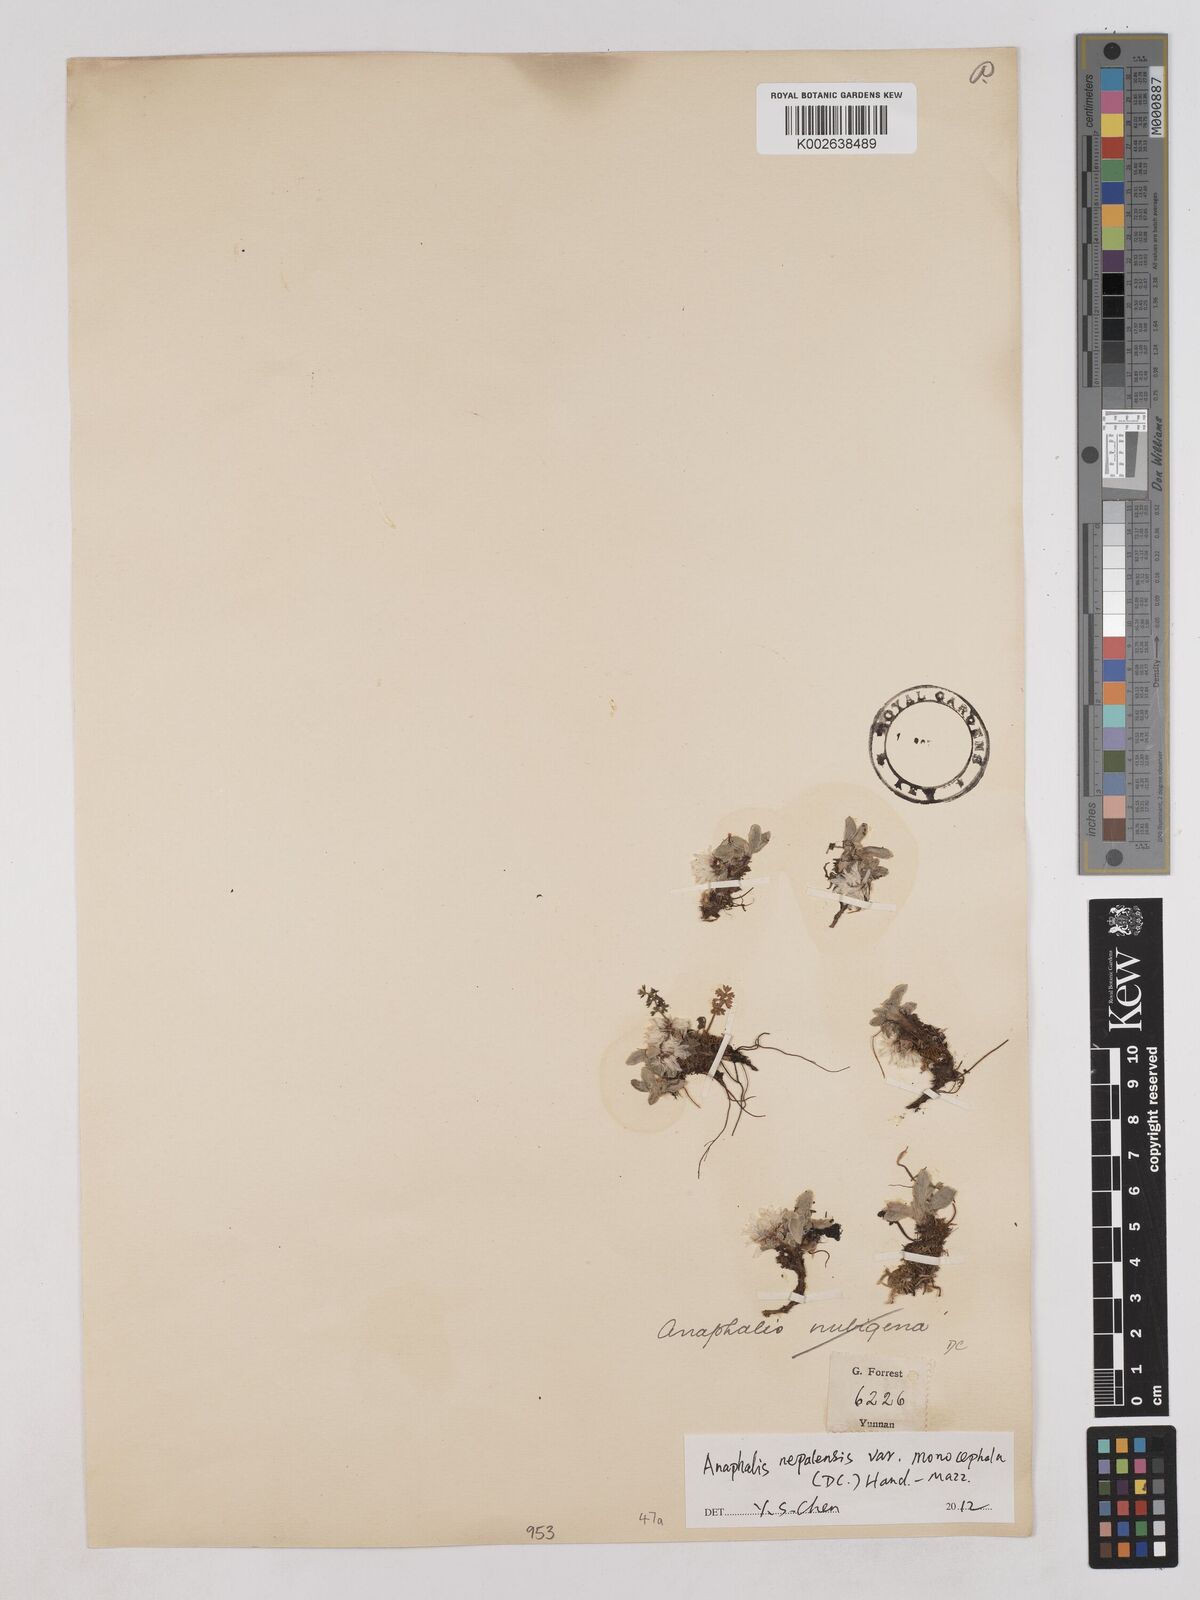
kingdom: Plantae
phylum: Tracheophyta
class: Magnoliopsida
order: Asterales
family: Asteraceae
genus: Anaphalis
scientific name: Anaphalis nepalensis
